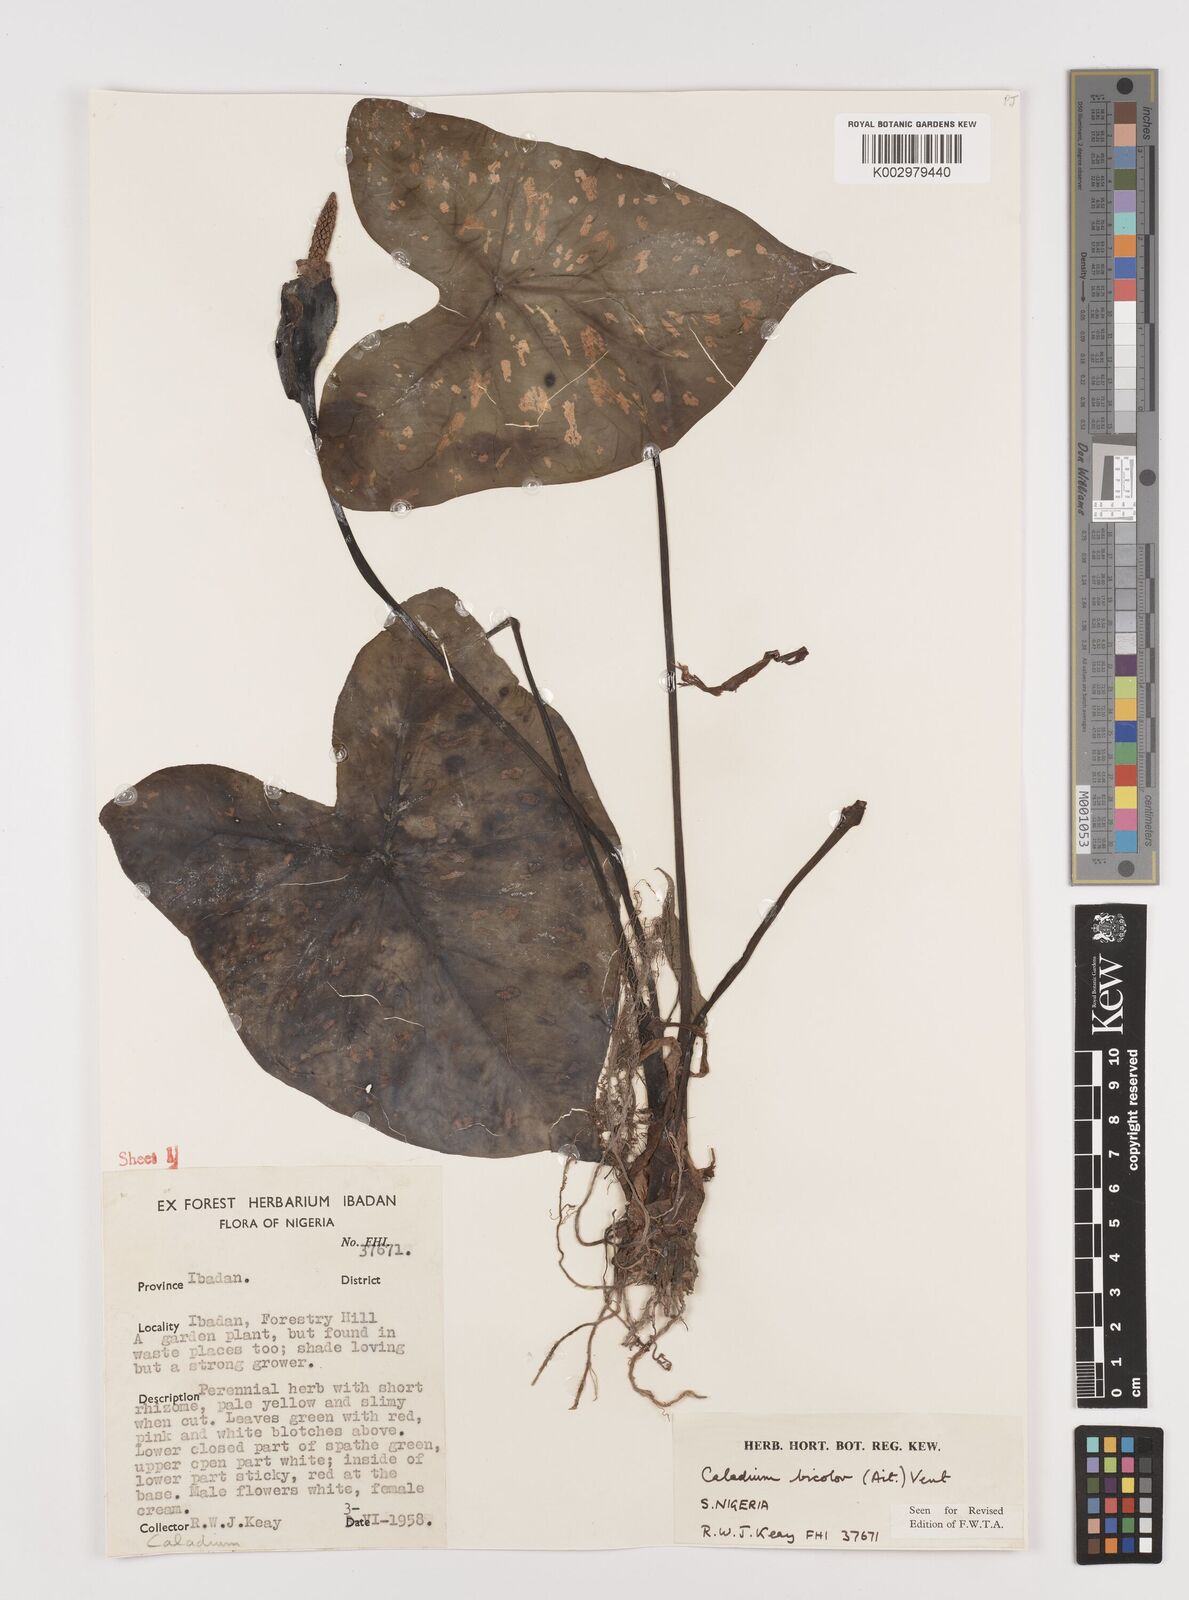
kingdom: Plantae
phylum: Tracheophyta
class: Liliopsida
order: Alismatales
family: Araceae
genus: Caladium
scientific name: Caladium bicolor
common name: Artist's pallet
